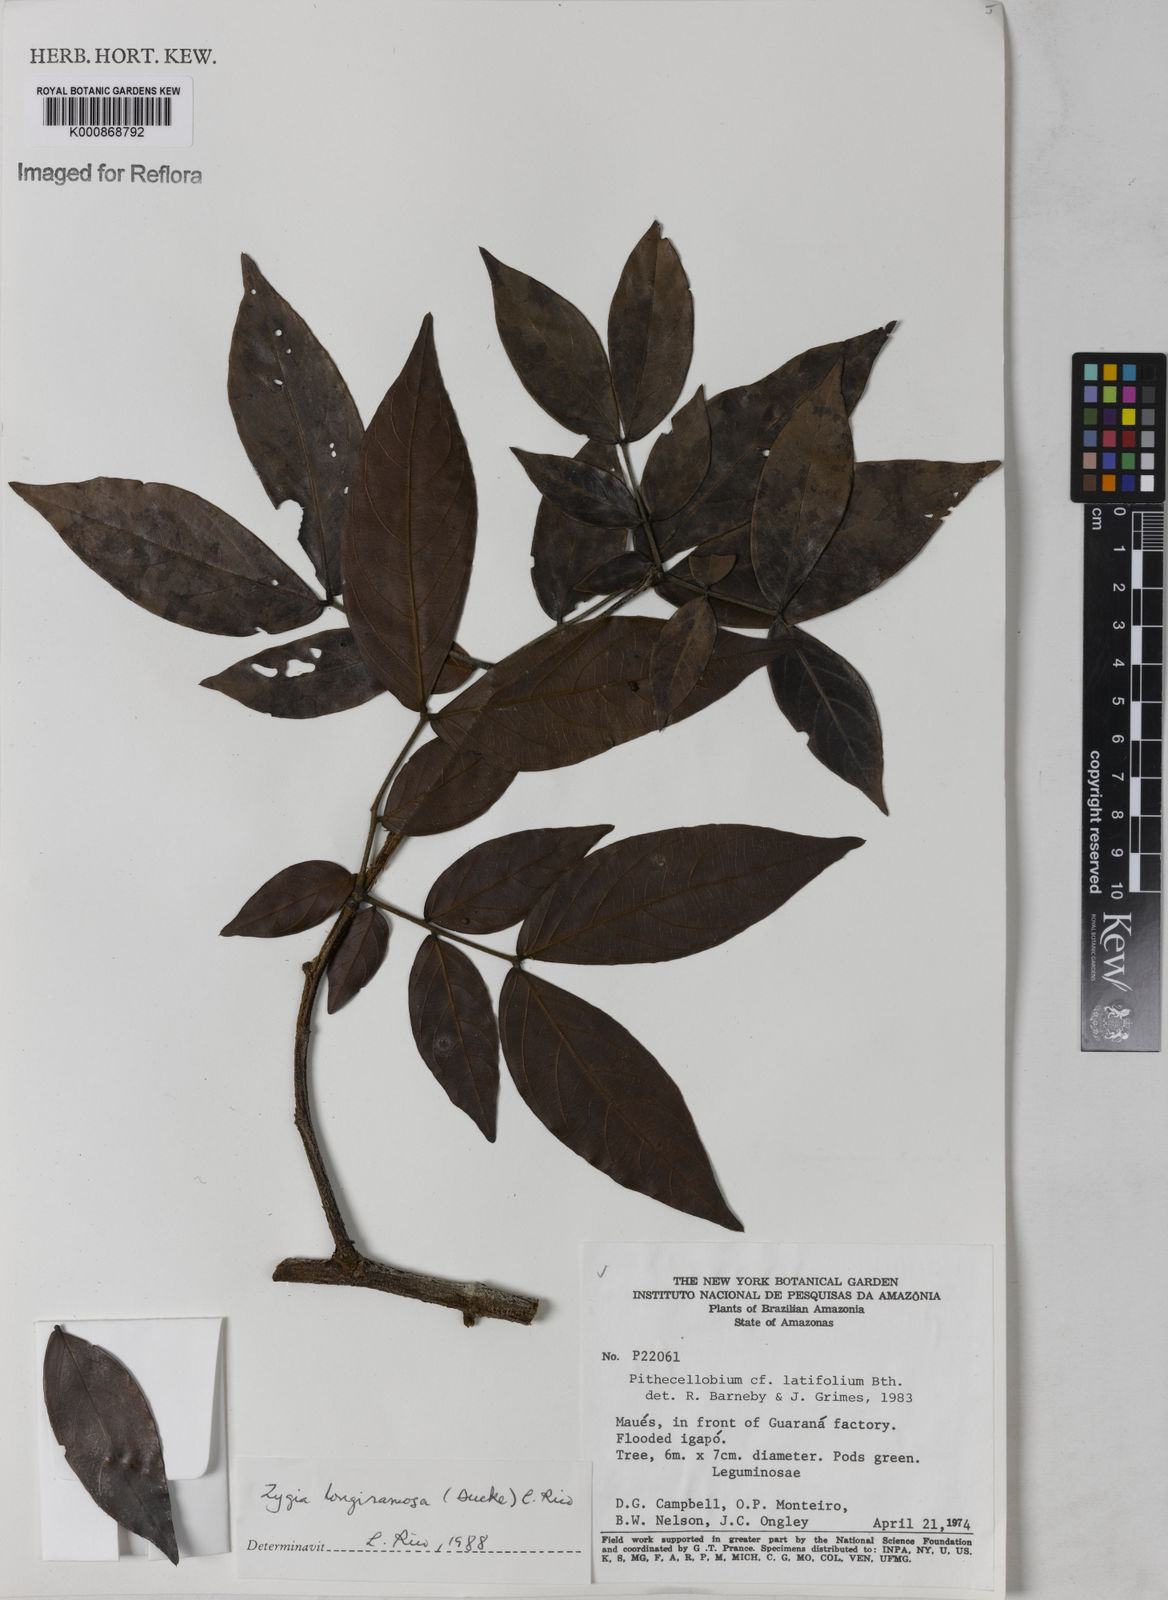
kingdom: Plantae
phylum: Tracheophyta
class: Magnoliopsida
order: Fabales
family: Fabaceae
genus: Zygia
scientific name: Zygia inaequalis
